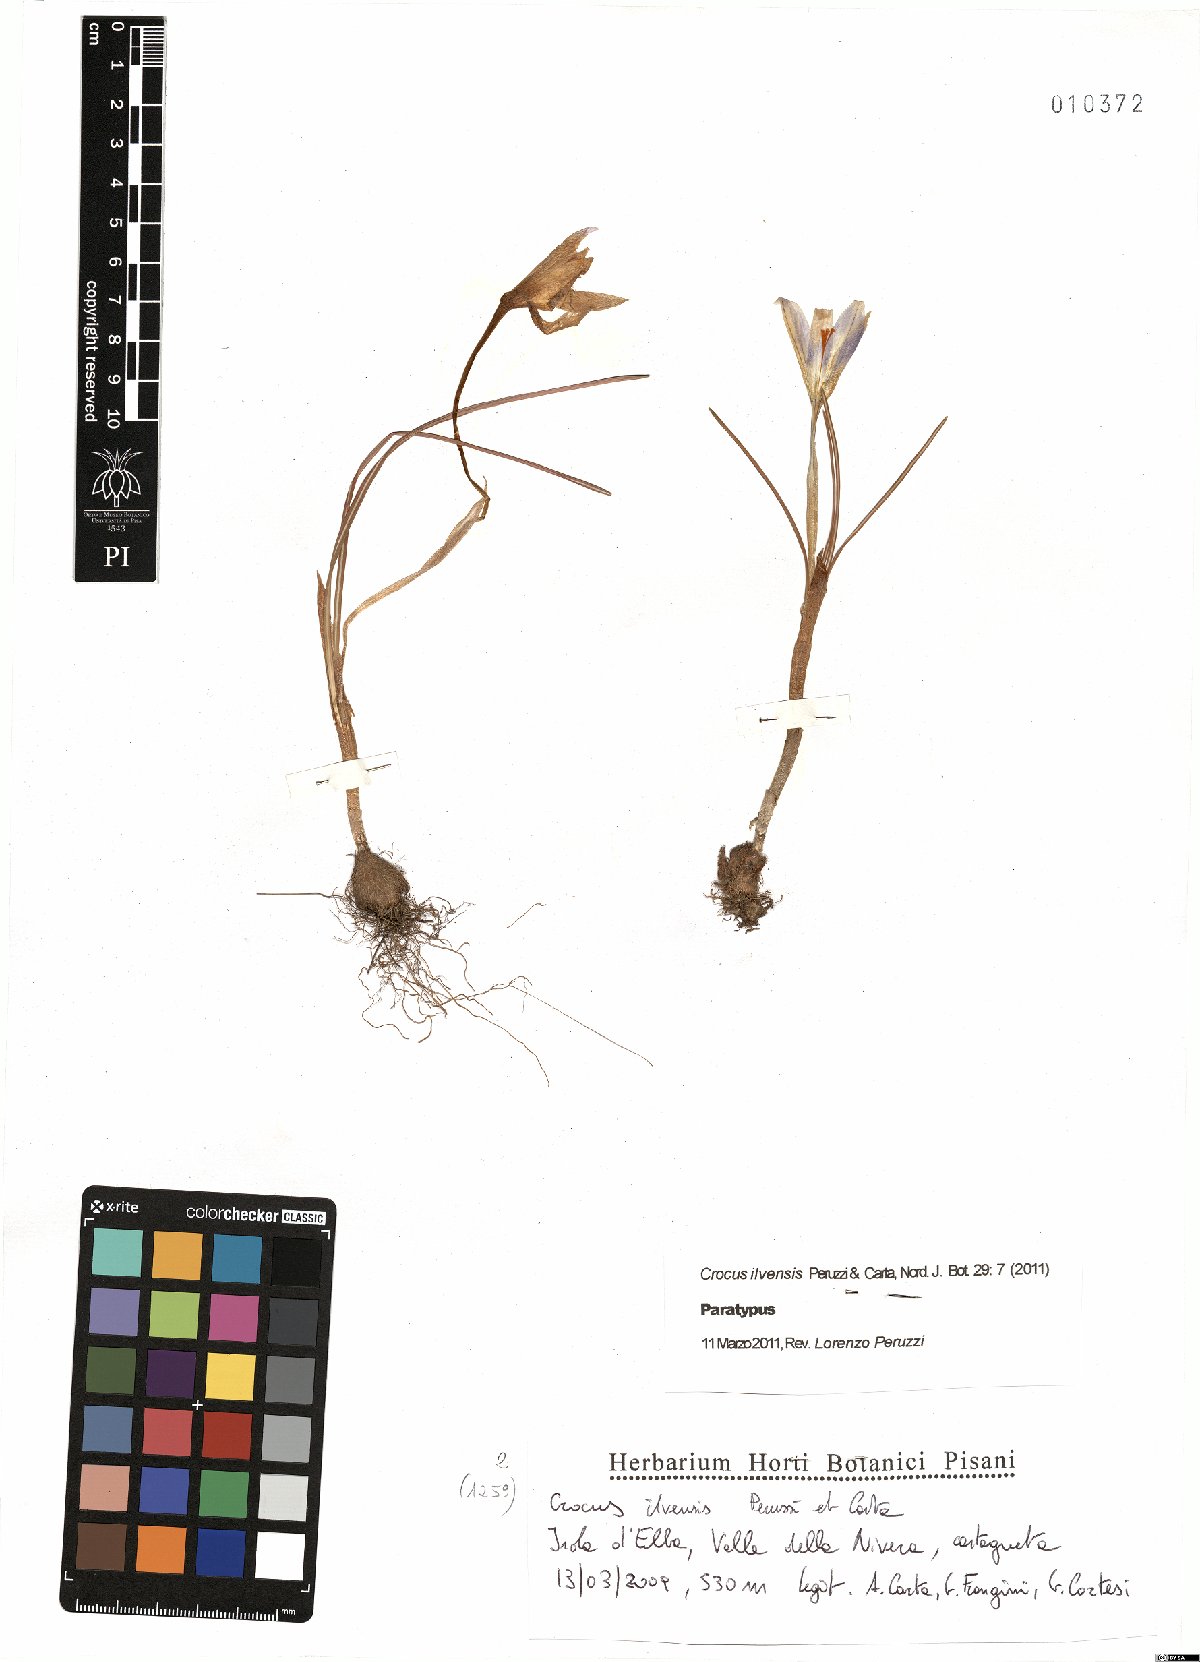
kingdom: Plantae
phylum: Tracheophyta
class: Liliopsida
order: Asparagales
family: Iridaceae
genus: Crocus
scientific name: Crocus ilvensis
